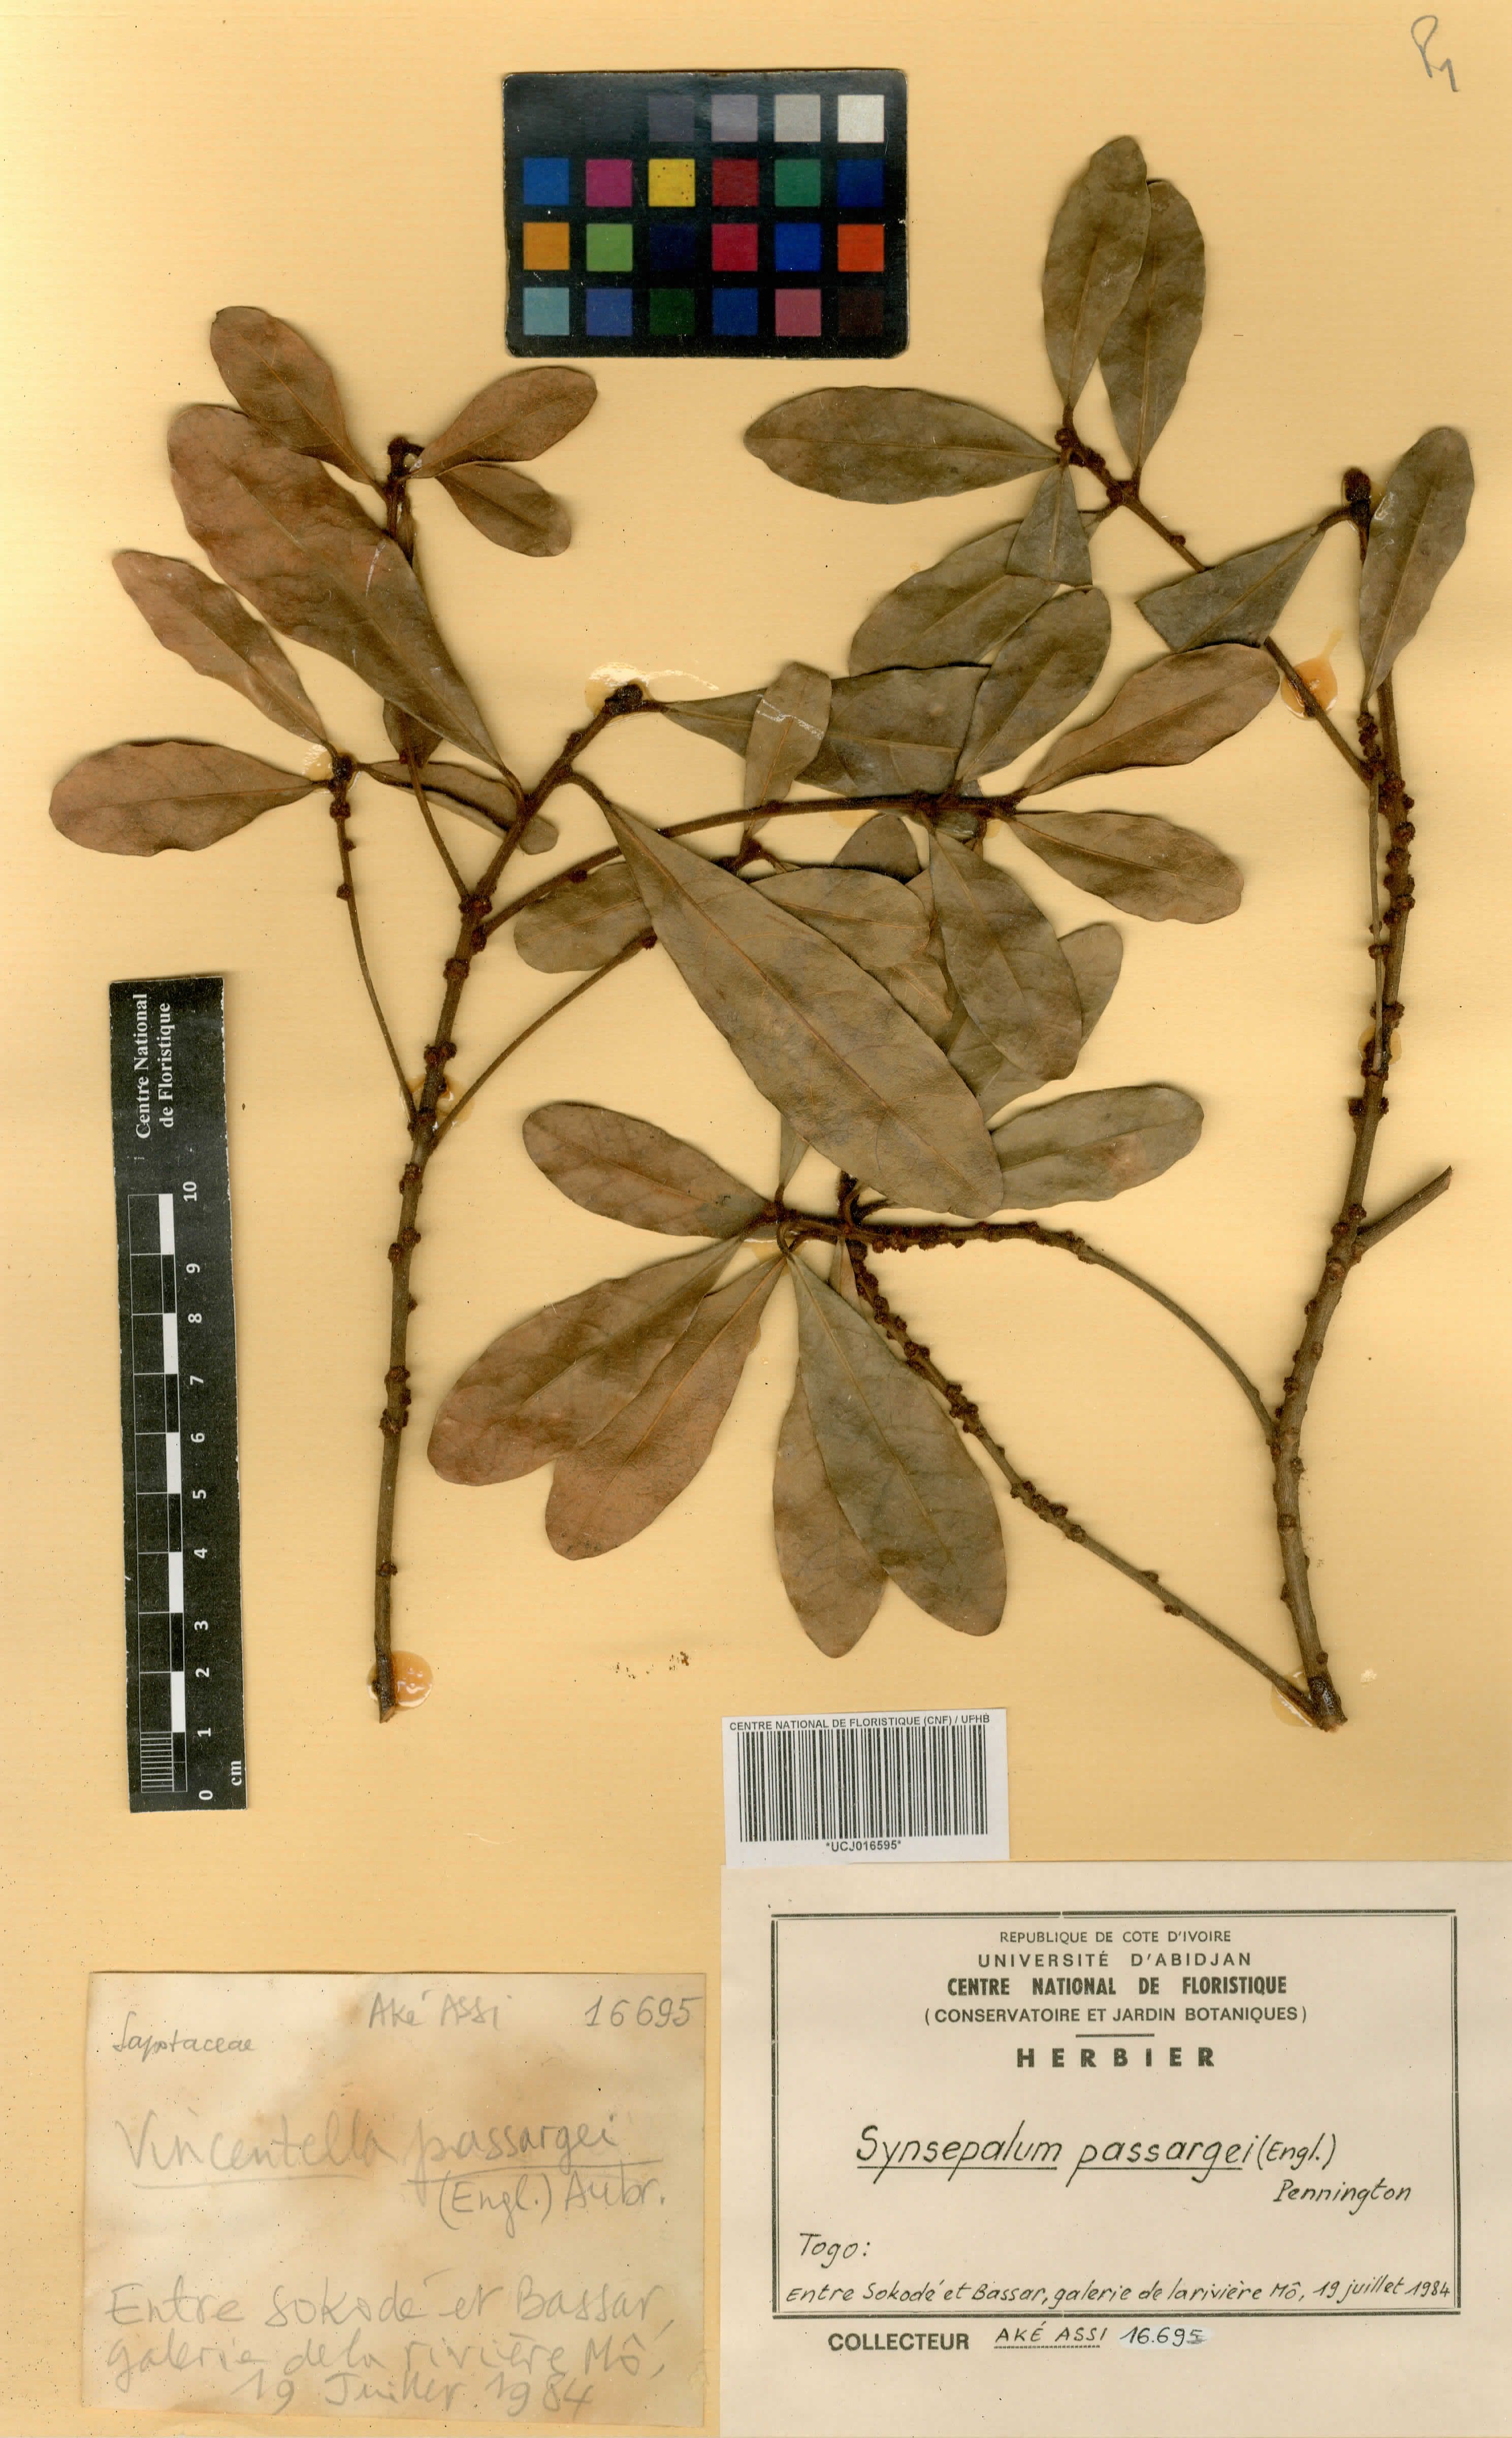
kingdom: Plantae
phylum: Tracheophyta
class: Magnoliopsida
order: Ericales
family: Sapotaceae
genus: Synsepalum
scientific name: Synsepalum passargei
